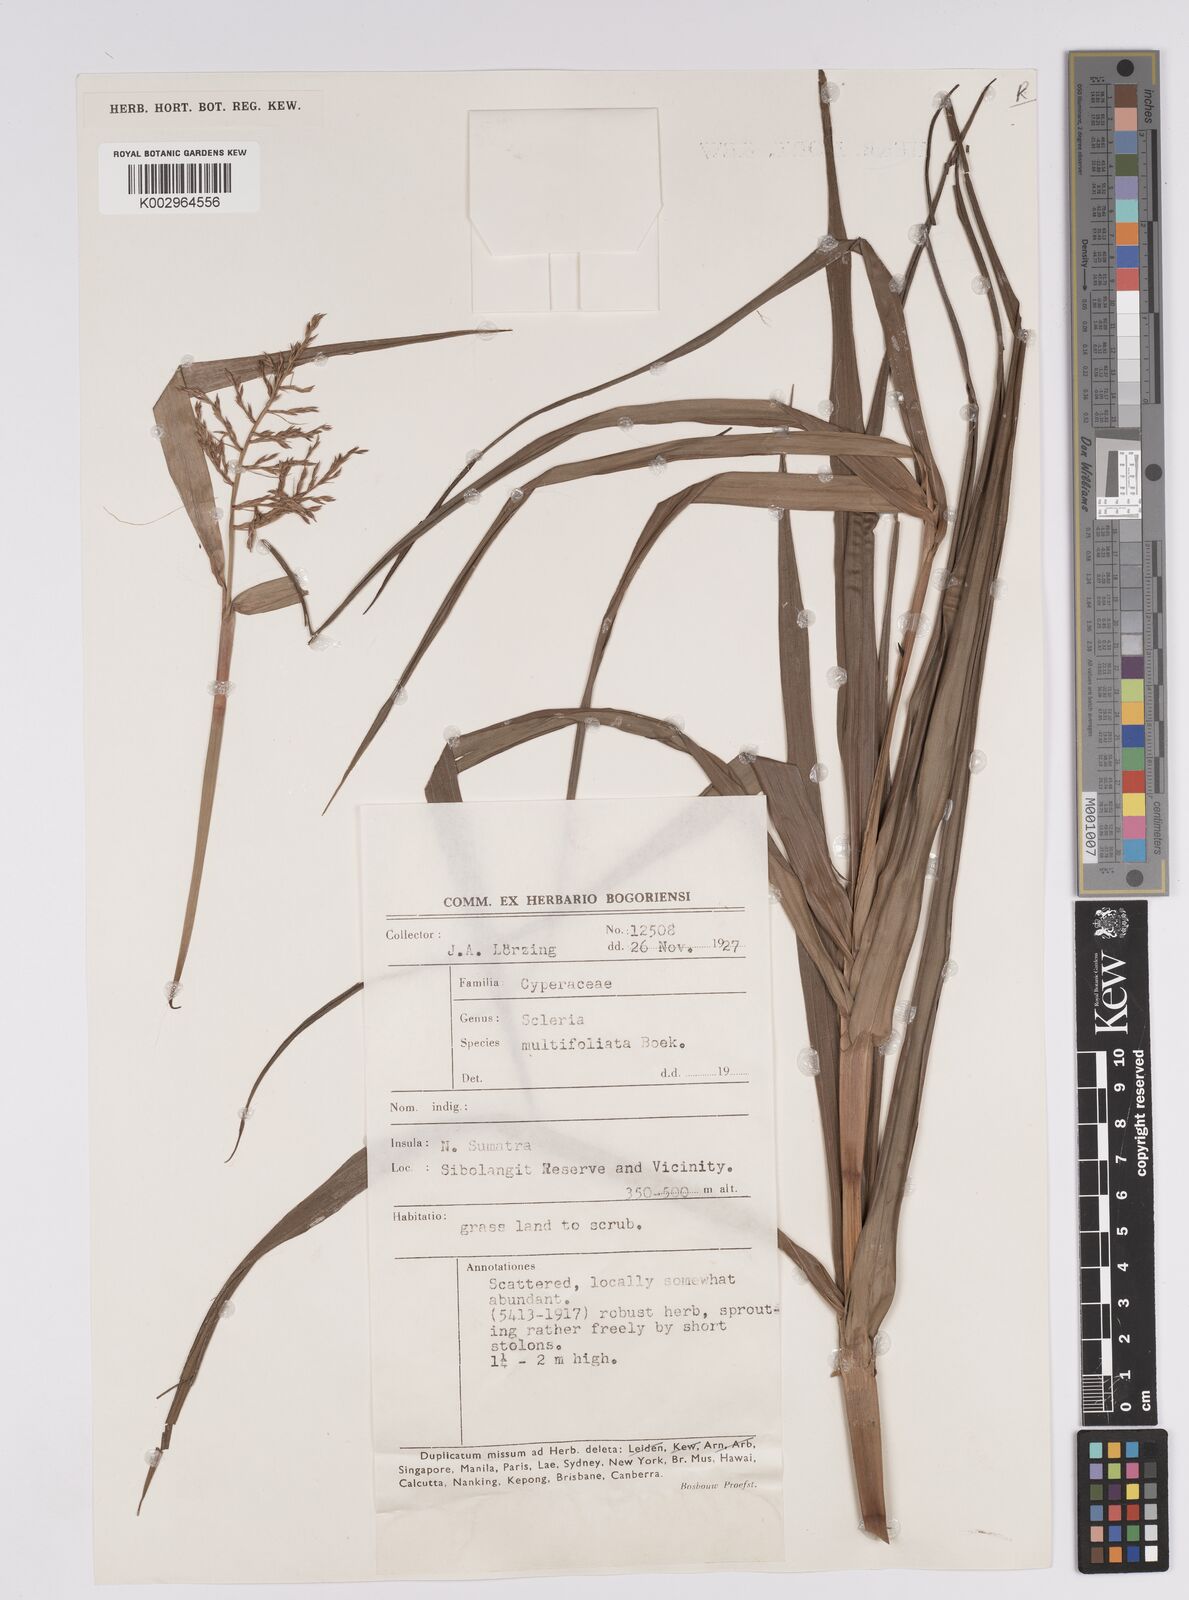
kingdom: Plantae
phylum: Tracheophyta
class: Liliopsida
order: Poales
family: Cyperaceae
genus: Scleria
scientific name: Scleria purpurascens
